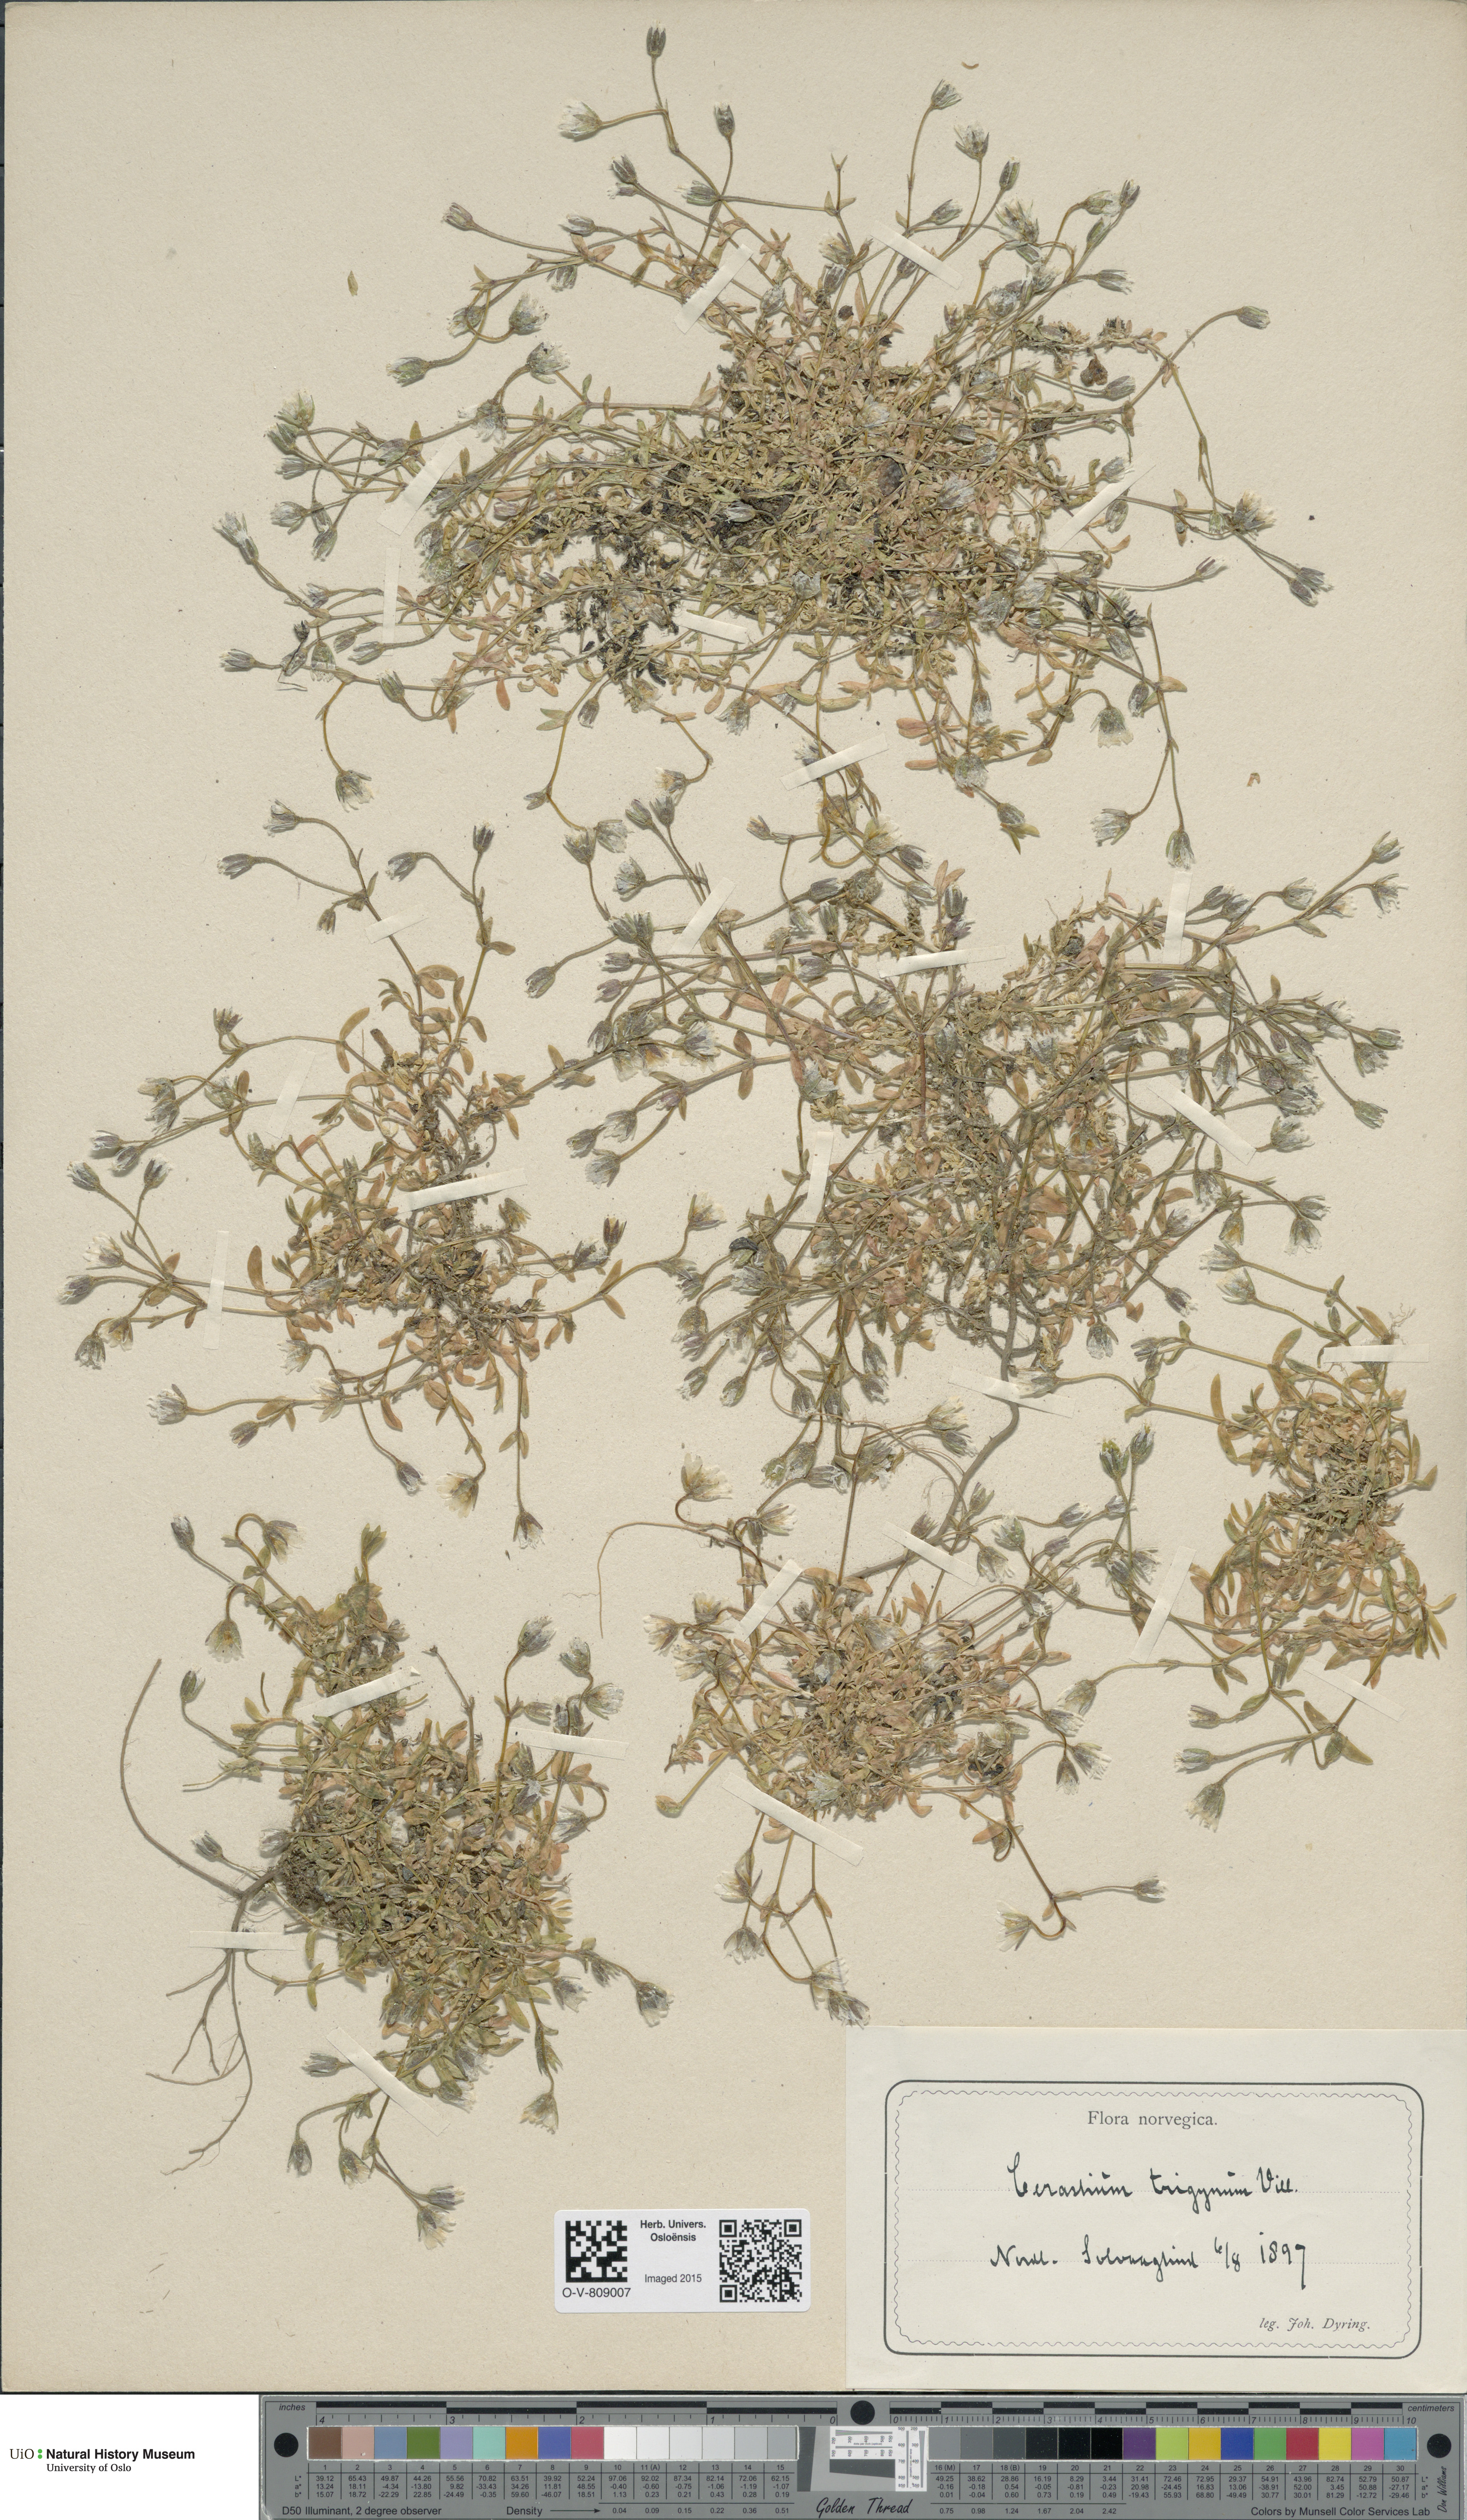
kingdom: Plantae
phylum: Tracheophyta
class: Magnoliopsida
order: Caryophyllales
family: Caryophyllaceae
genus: Dichodon
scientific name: Dichodon cerastoides
